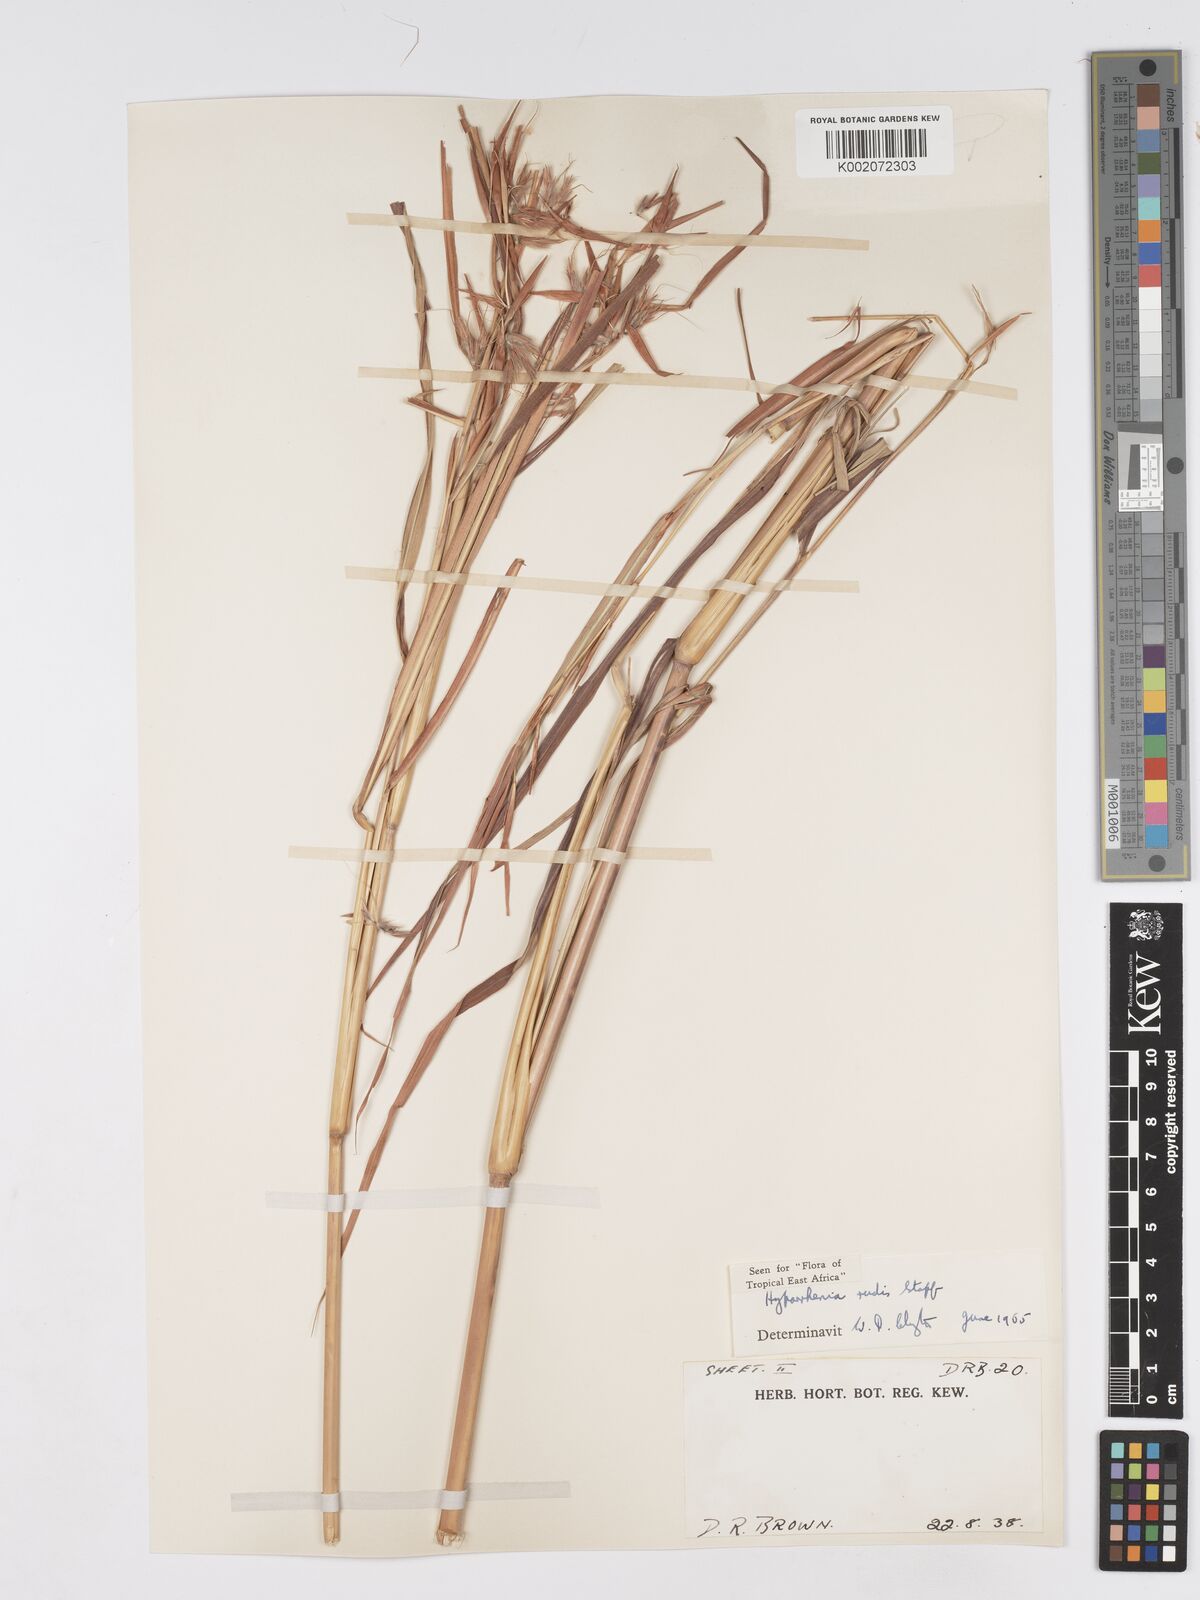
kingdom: Plantae
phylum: Tracheophyta
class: Liliopsida
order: Poales
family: Poaceae
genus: Hyparrhenia
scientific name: Hyparrhenia rudis
